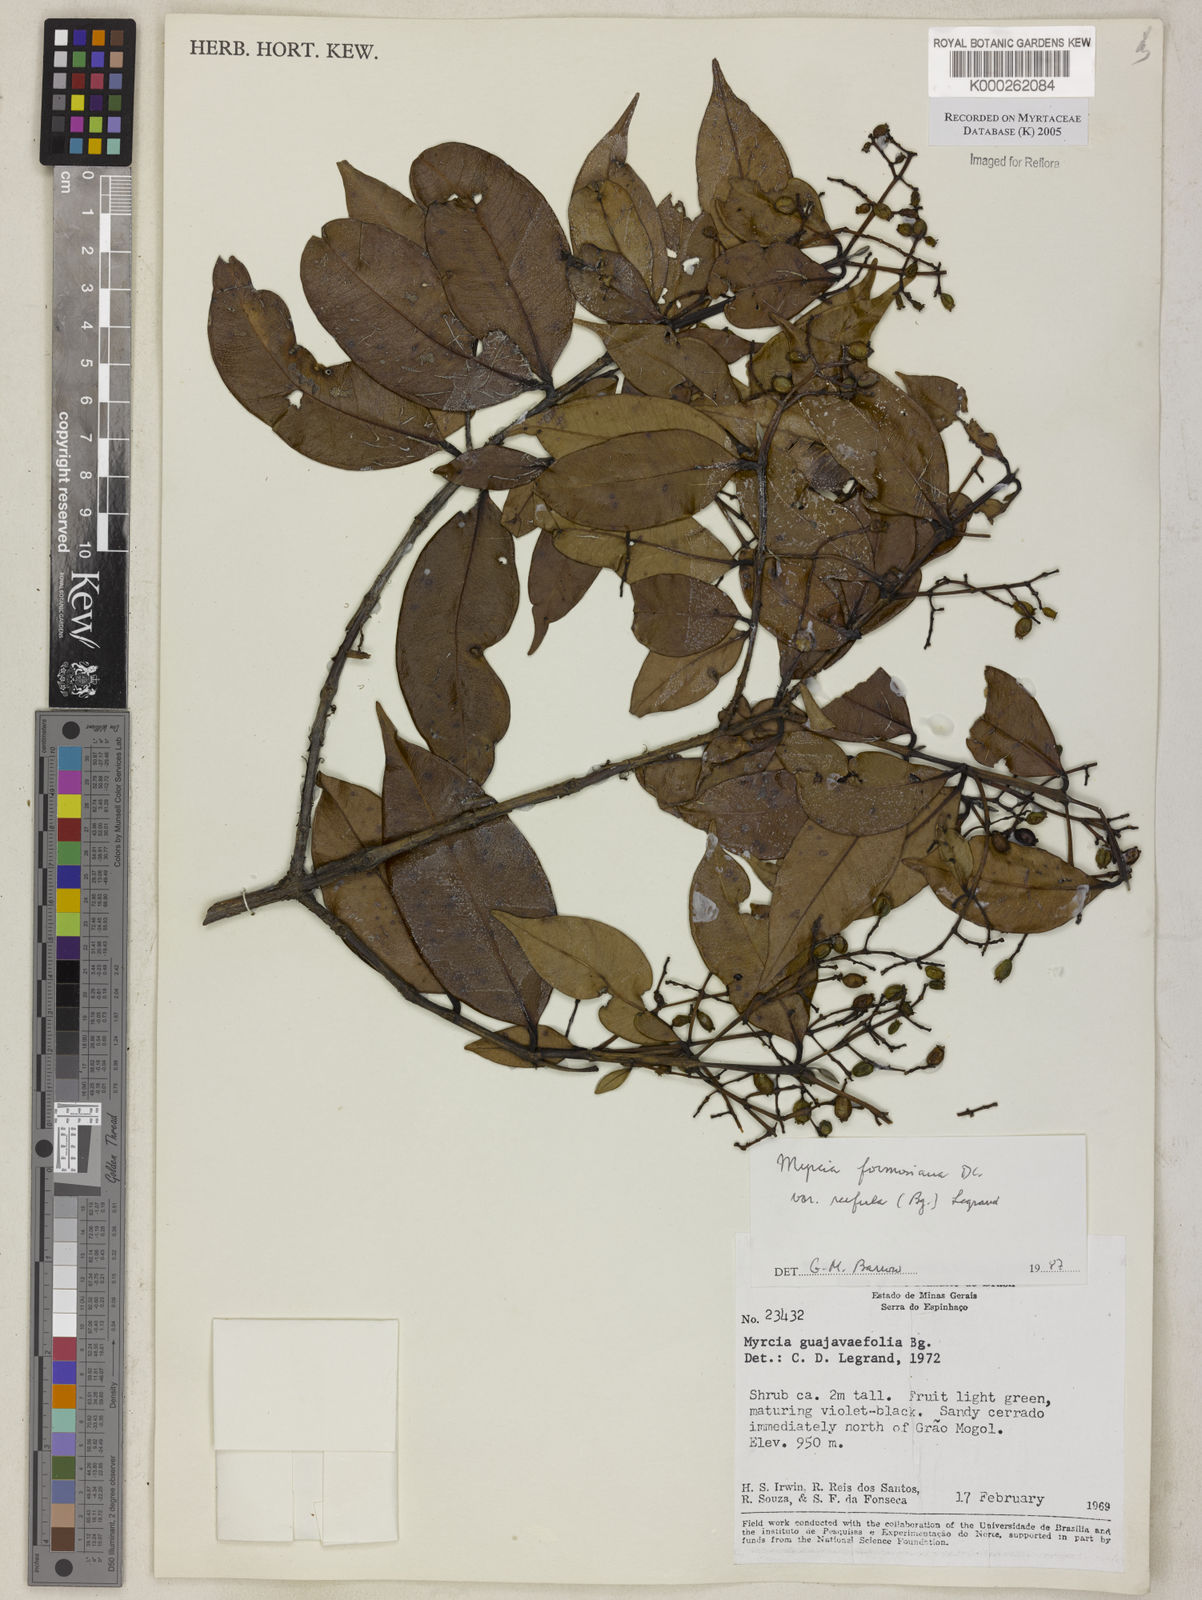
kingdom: Plantae
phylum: Tracheophyta
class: Magnoliopsida
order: Myrtales
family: Myrtaceae
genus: Myrcia
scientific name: Myrcia splendens
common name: Surinam cherry
